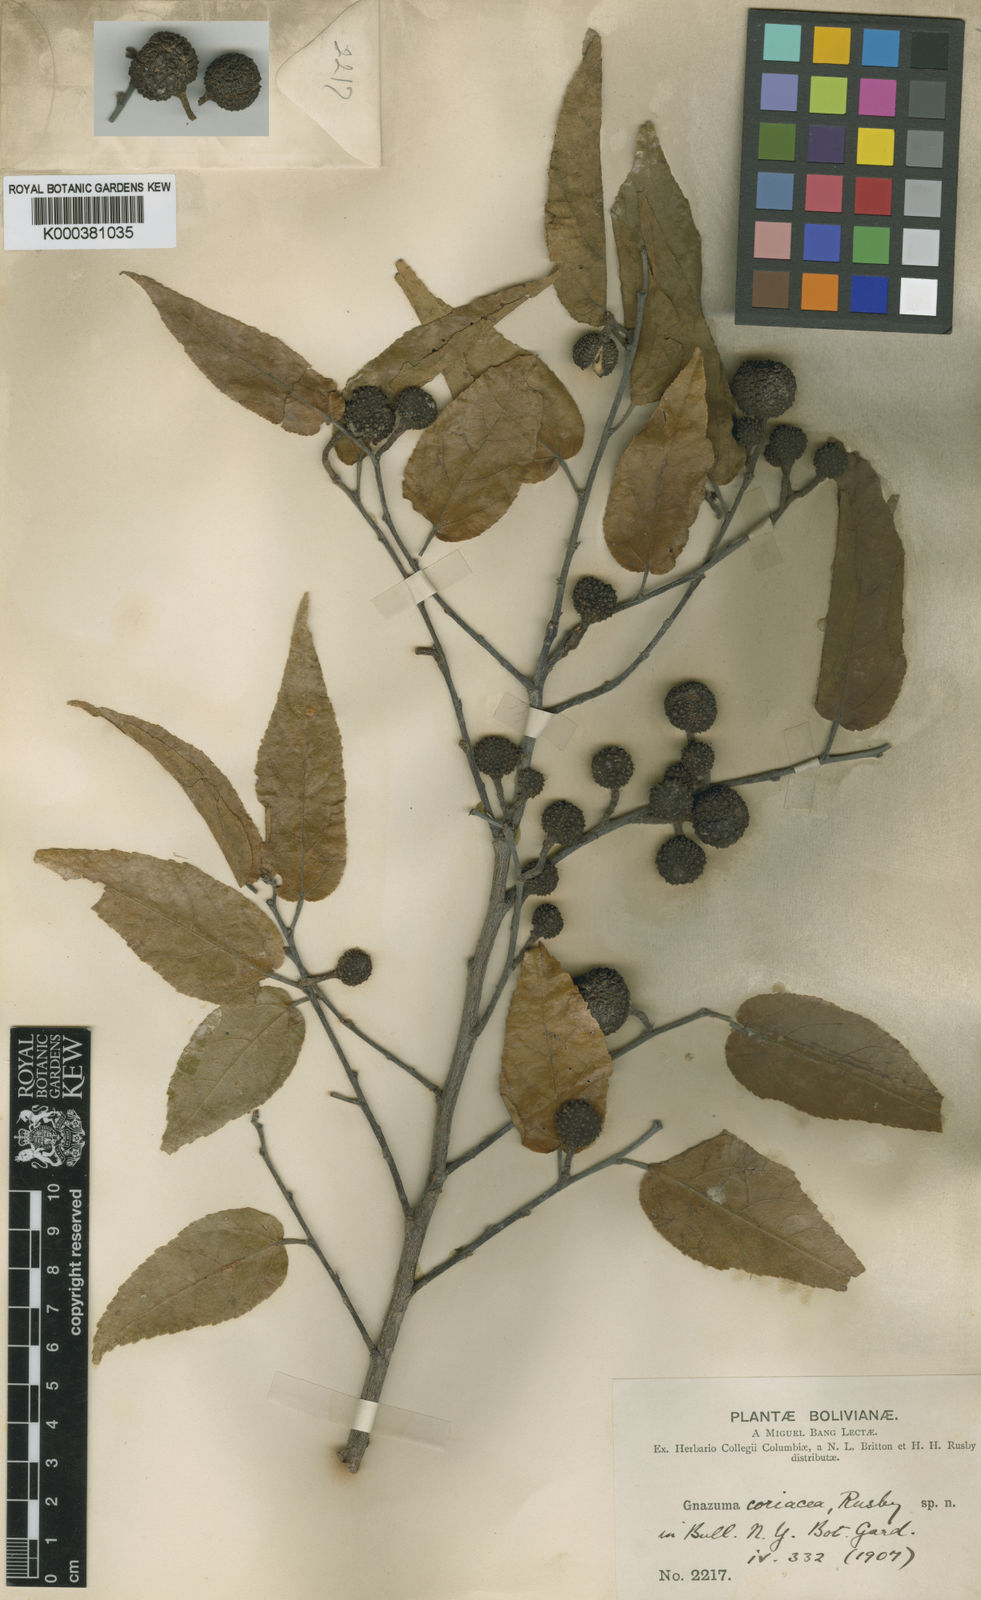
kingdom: Plantae
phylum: Tracheophyta
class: Magnoliopsida
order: Malvales
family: Malvaceae
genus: Guazuma
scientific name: Guazuma ulmifolia
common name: Bastard-cedar
